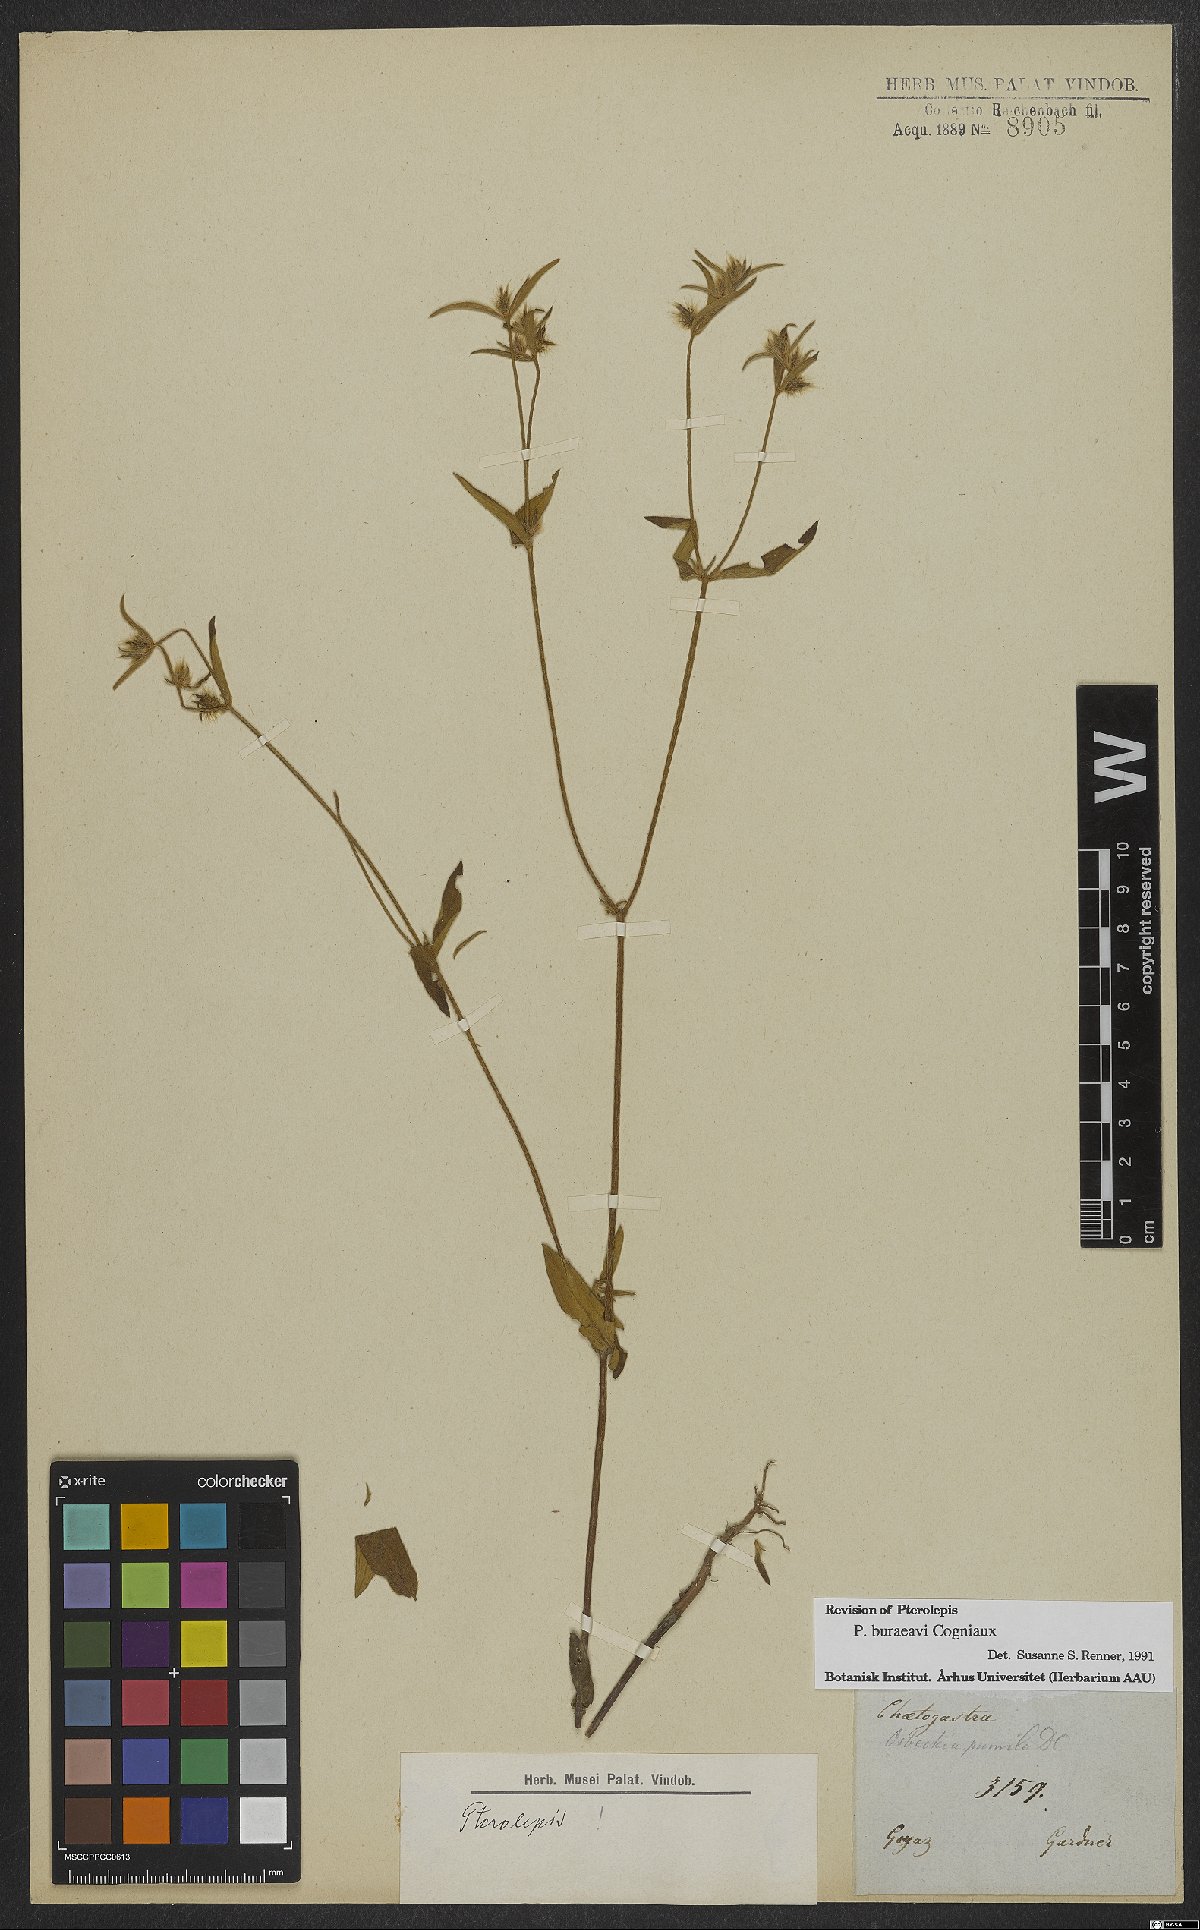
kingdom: Plantae
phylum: Tracheophyta
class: Magnoliopsida
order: Myrtales
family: Melastomataceae
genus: Pterolepis
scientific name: Pterolepis buraeavi
